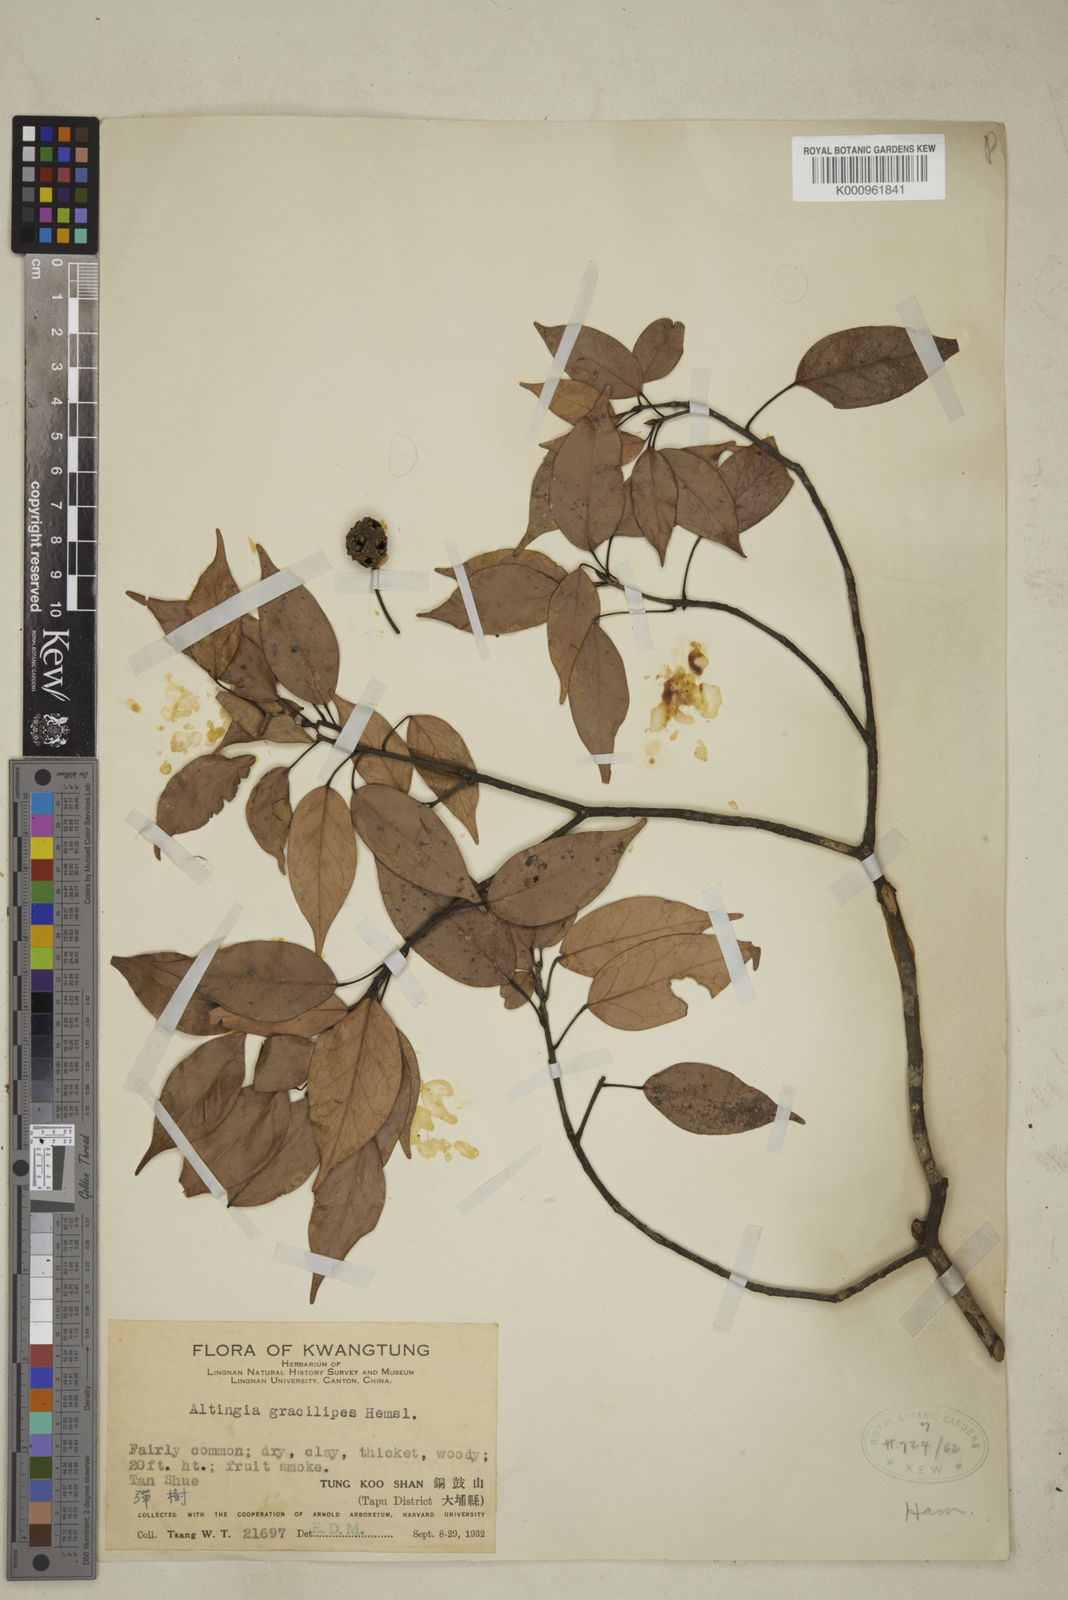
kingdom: Plantae
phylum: Tracheophyta
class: Magnoliopsida
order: Saxifragales
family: Altingiaceae
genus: Liquidambar
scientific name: Liquidambar gracilipes
